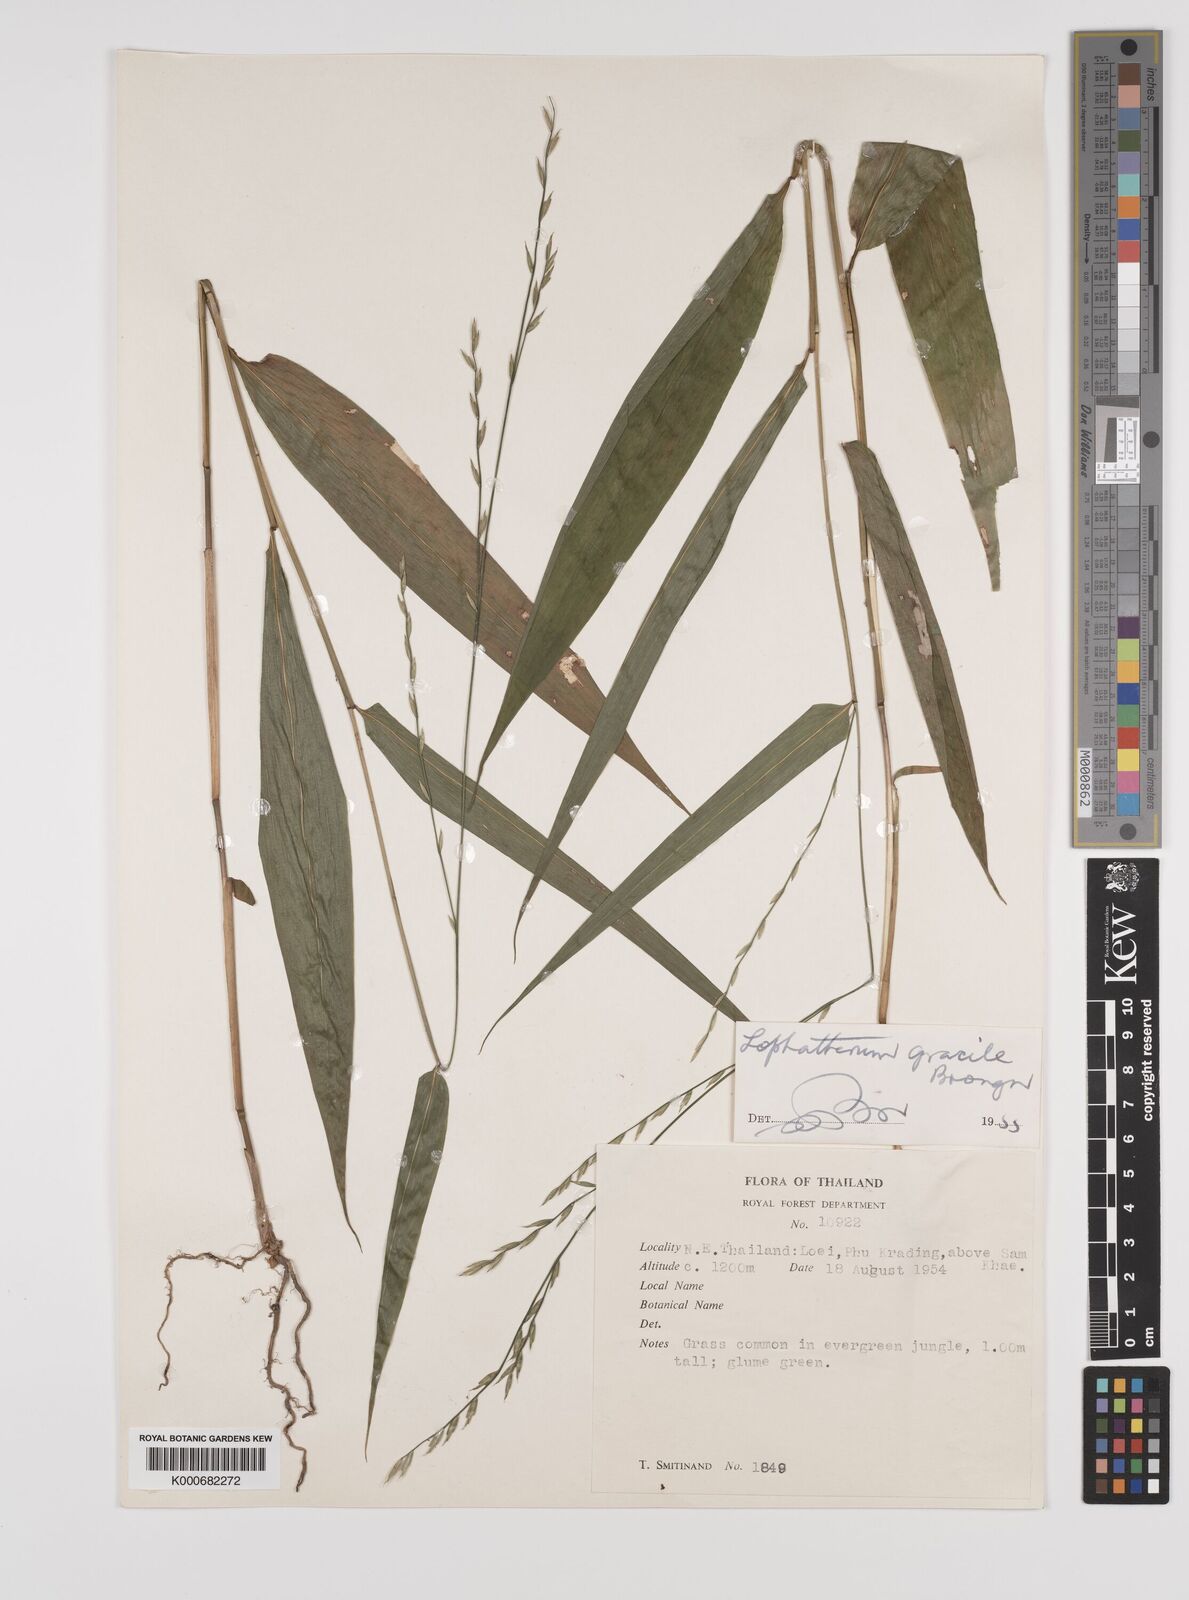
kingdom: Plantae
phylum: Tracheophyta
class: Liliopsida
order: Poales
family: Poaceae
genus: Lophatherum
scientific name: Lophatherum gracile
